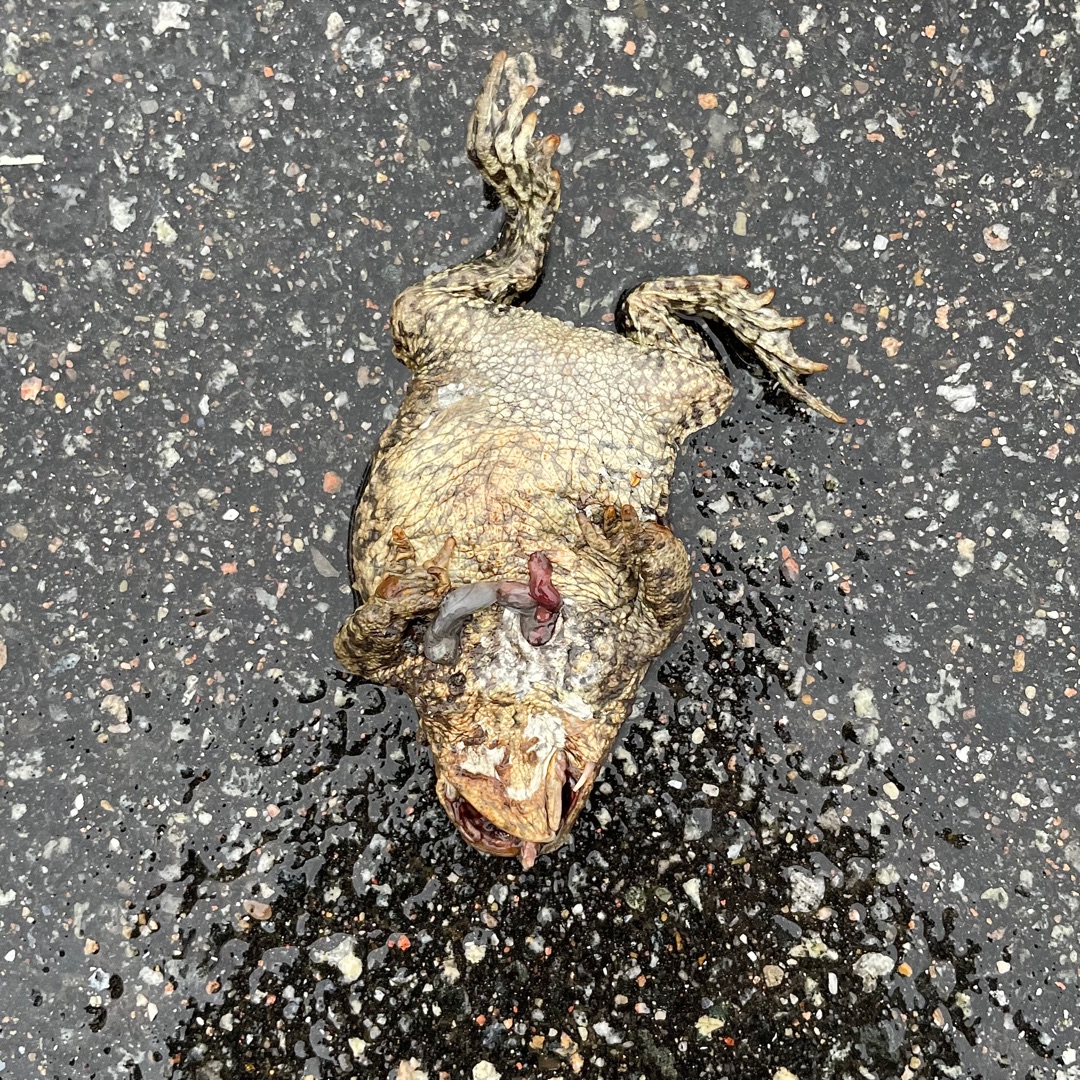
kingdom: Animalia
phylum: Chordata
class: Amphibia
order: Anura
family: Bufonidae
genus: Bufo
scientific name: Bufo bufo
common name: Skrubtudse
